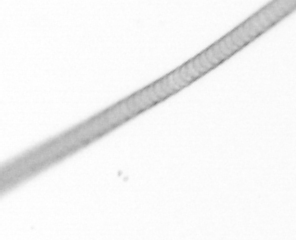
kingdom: Chromista
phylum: Ochrophyta
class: Bacillariophyceae
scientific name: Bacillariophyceae
